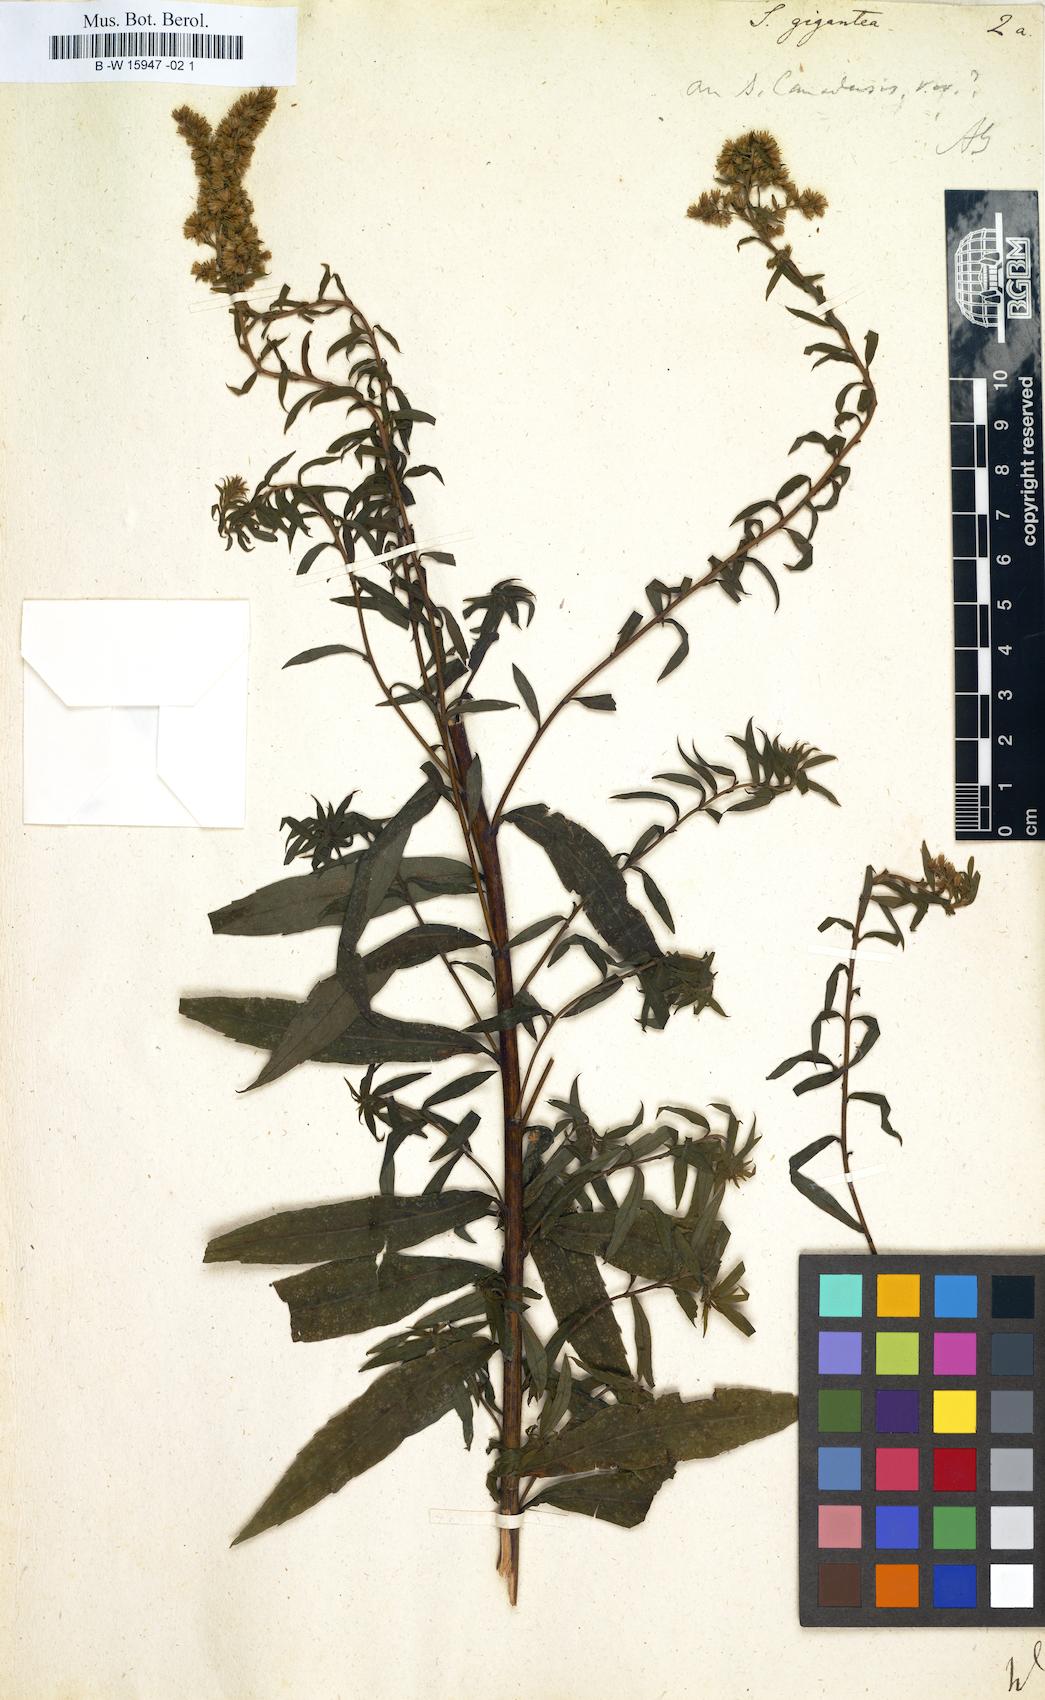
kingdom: Plantae
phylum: Tracheophyta
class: Magnoliopsida
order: Asterales
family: Asteraceae
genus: Solidago
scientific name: Solidago gigantea
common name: Giant goldenrod
